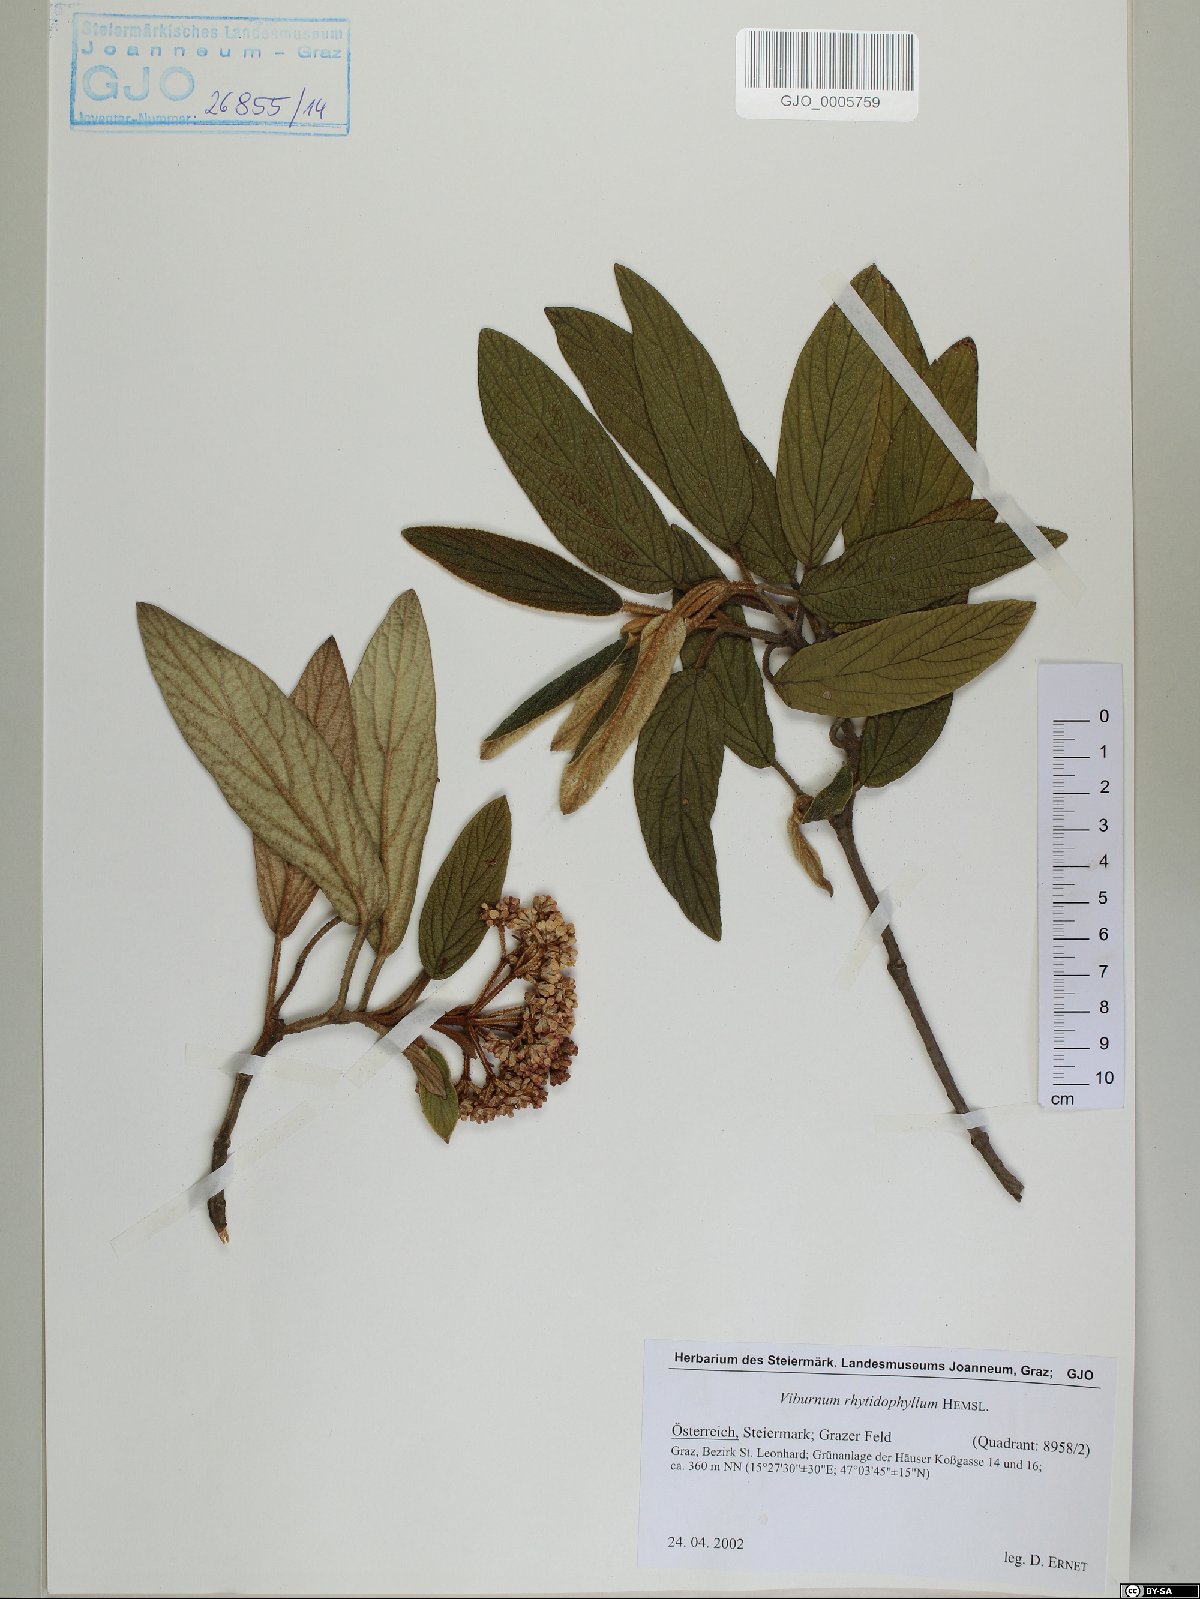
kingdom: Plantae
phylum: Tracheophyta
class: Magnoliopsida
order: Dipsacales
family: Viburnaceae
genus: Viburnum
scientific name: Viburnum rhytidophyllum
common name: Wrinkled viburnum
